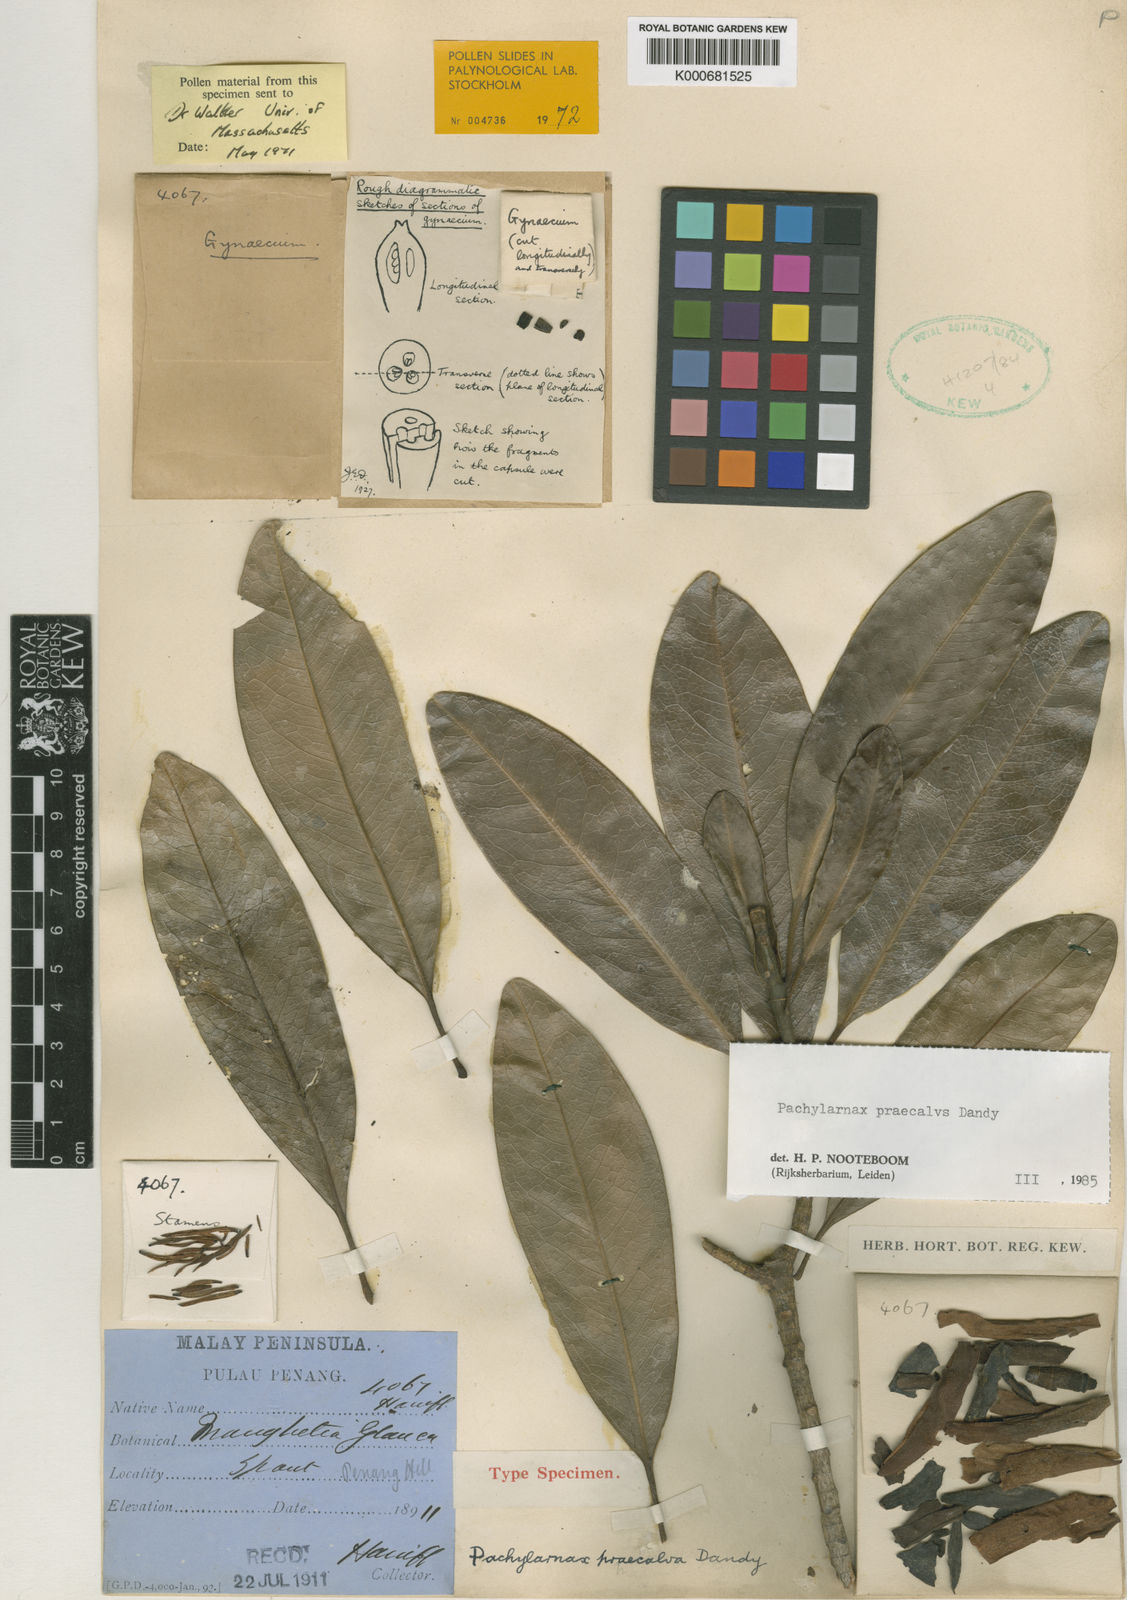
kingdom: Plantae
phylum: Tracheophyta
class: Magnoliopsida
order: Magnoliales
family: Magnoliaceae
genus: Magnolia
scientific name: Magnolia praecalva
